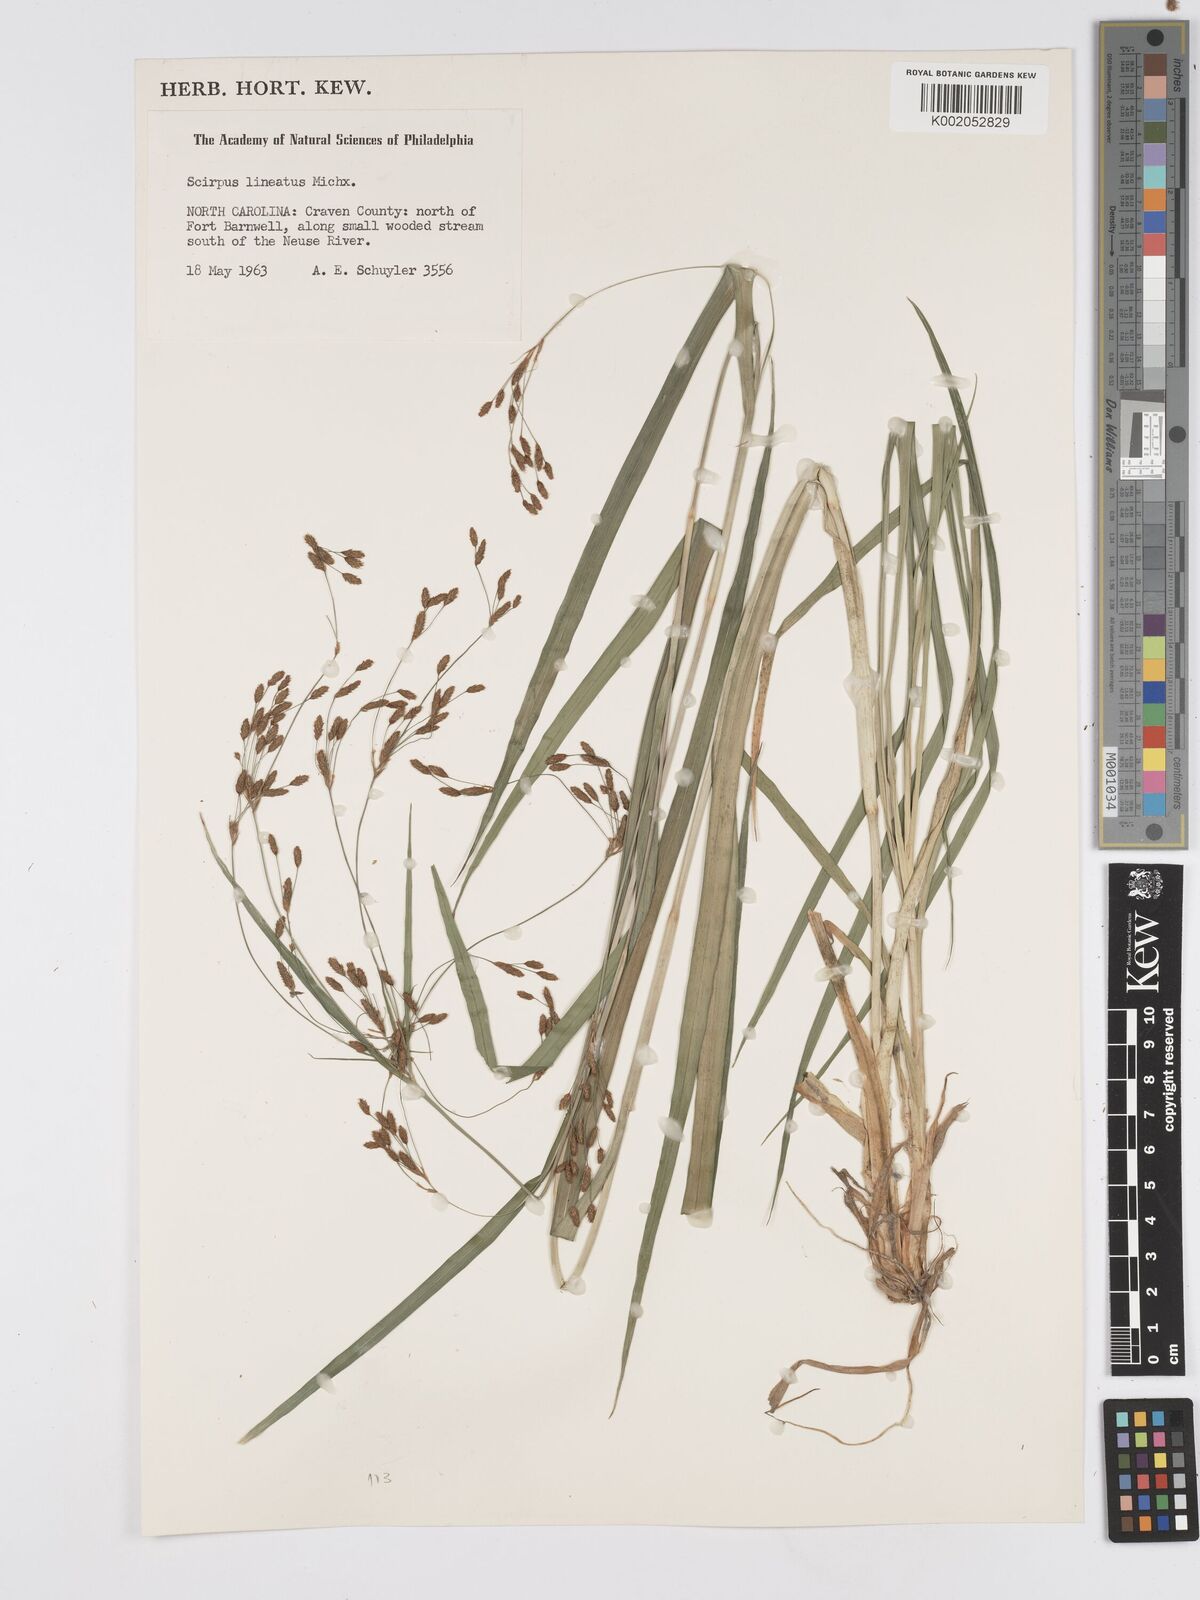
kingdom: Plantae
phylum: Tracheophyta
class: Liliopsida
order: Poales
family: Cyperaceae
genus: Scirpus
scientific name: Scirpus lineatus
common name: Drooping bulrush
